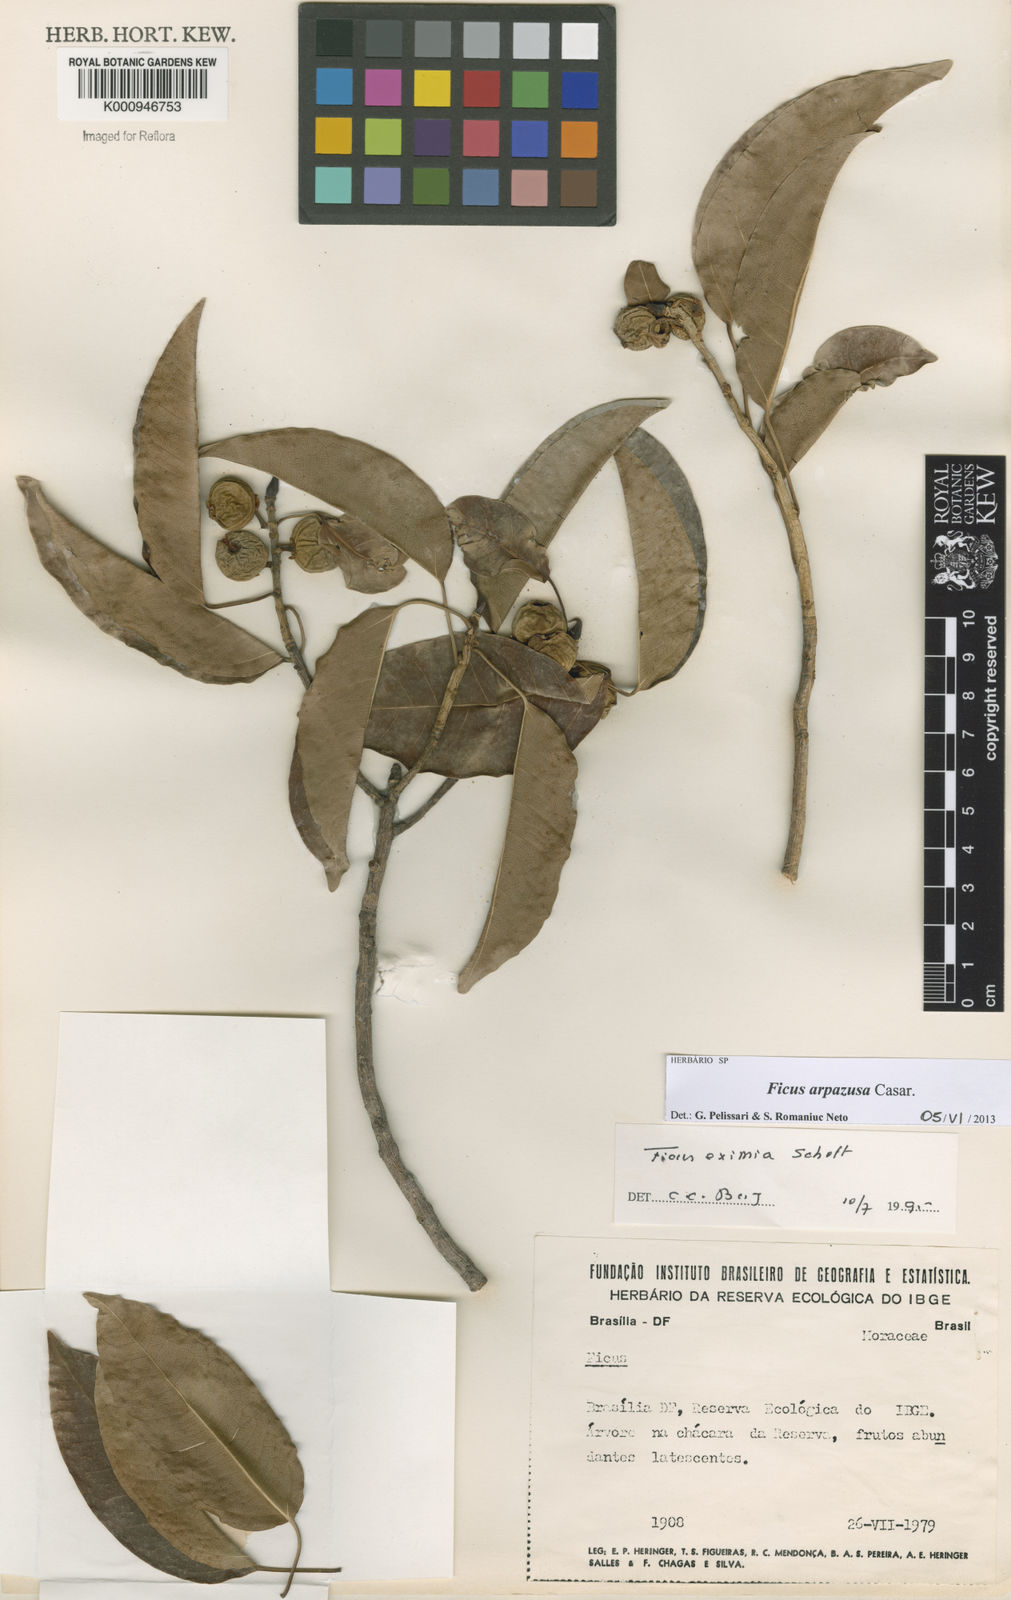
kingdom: Plantae
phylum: Tracheophyta
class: Magnoliopsida
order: Rosales
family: Moraceae
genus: Ficus
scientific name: Ficus arpazusa
